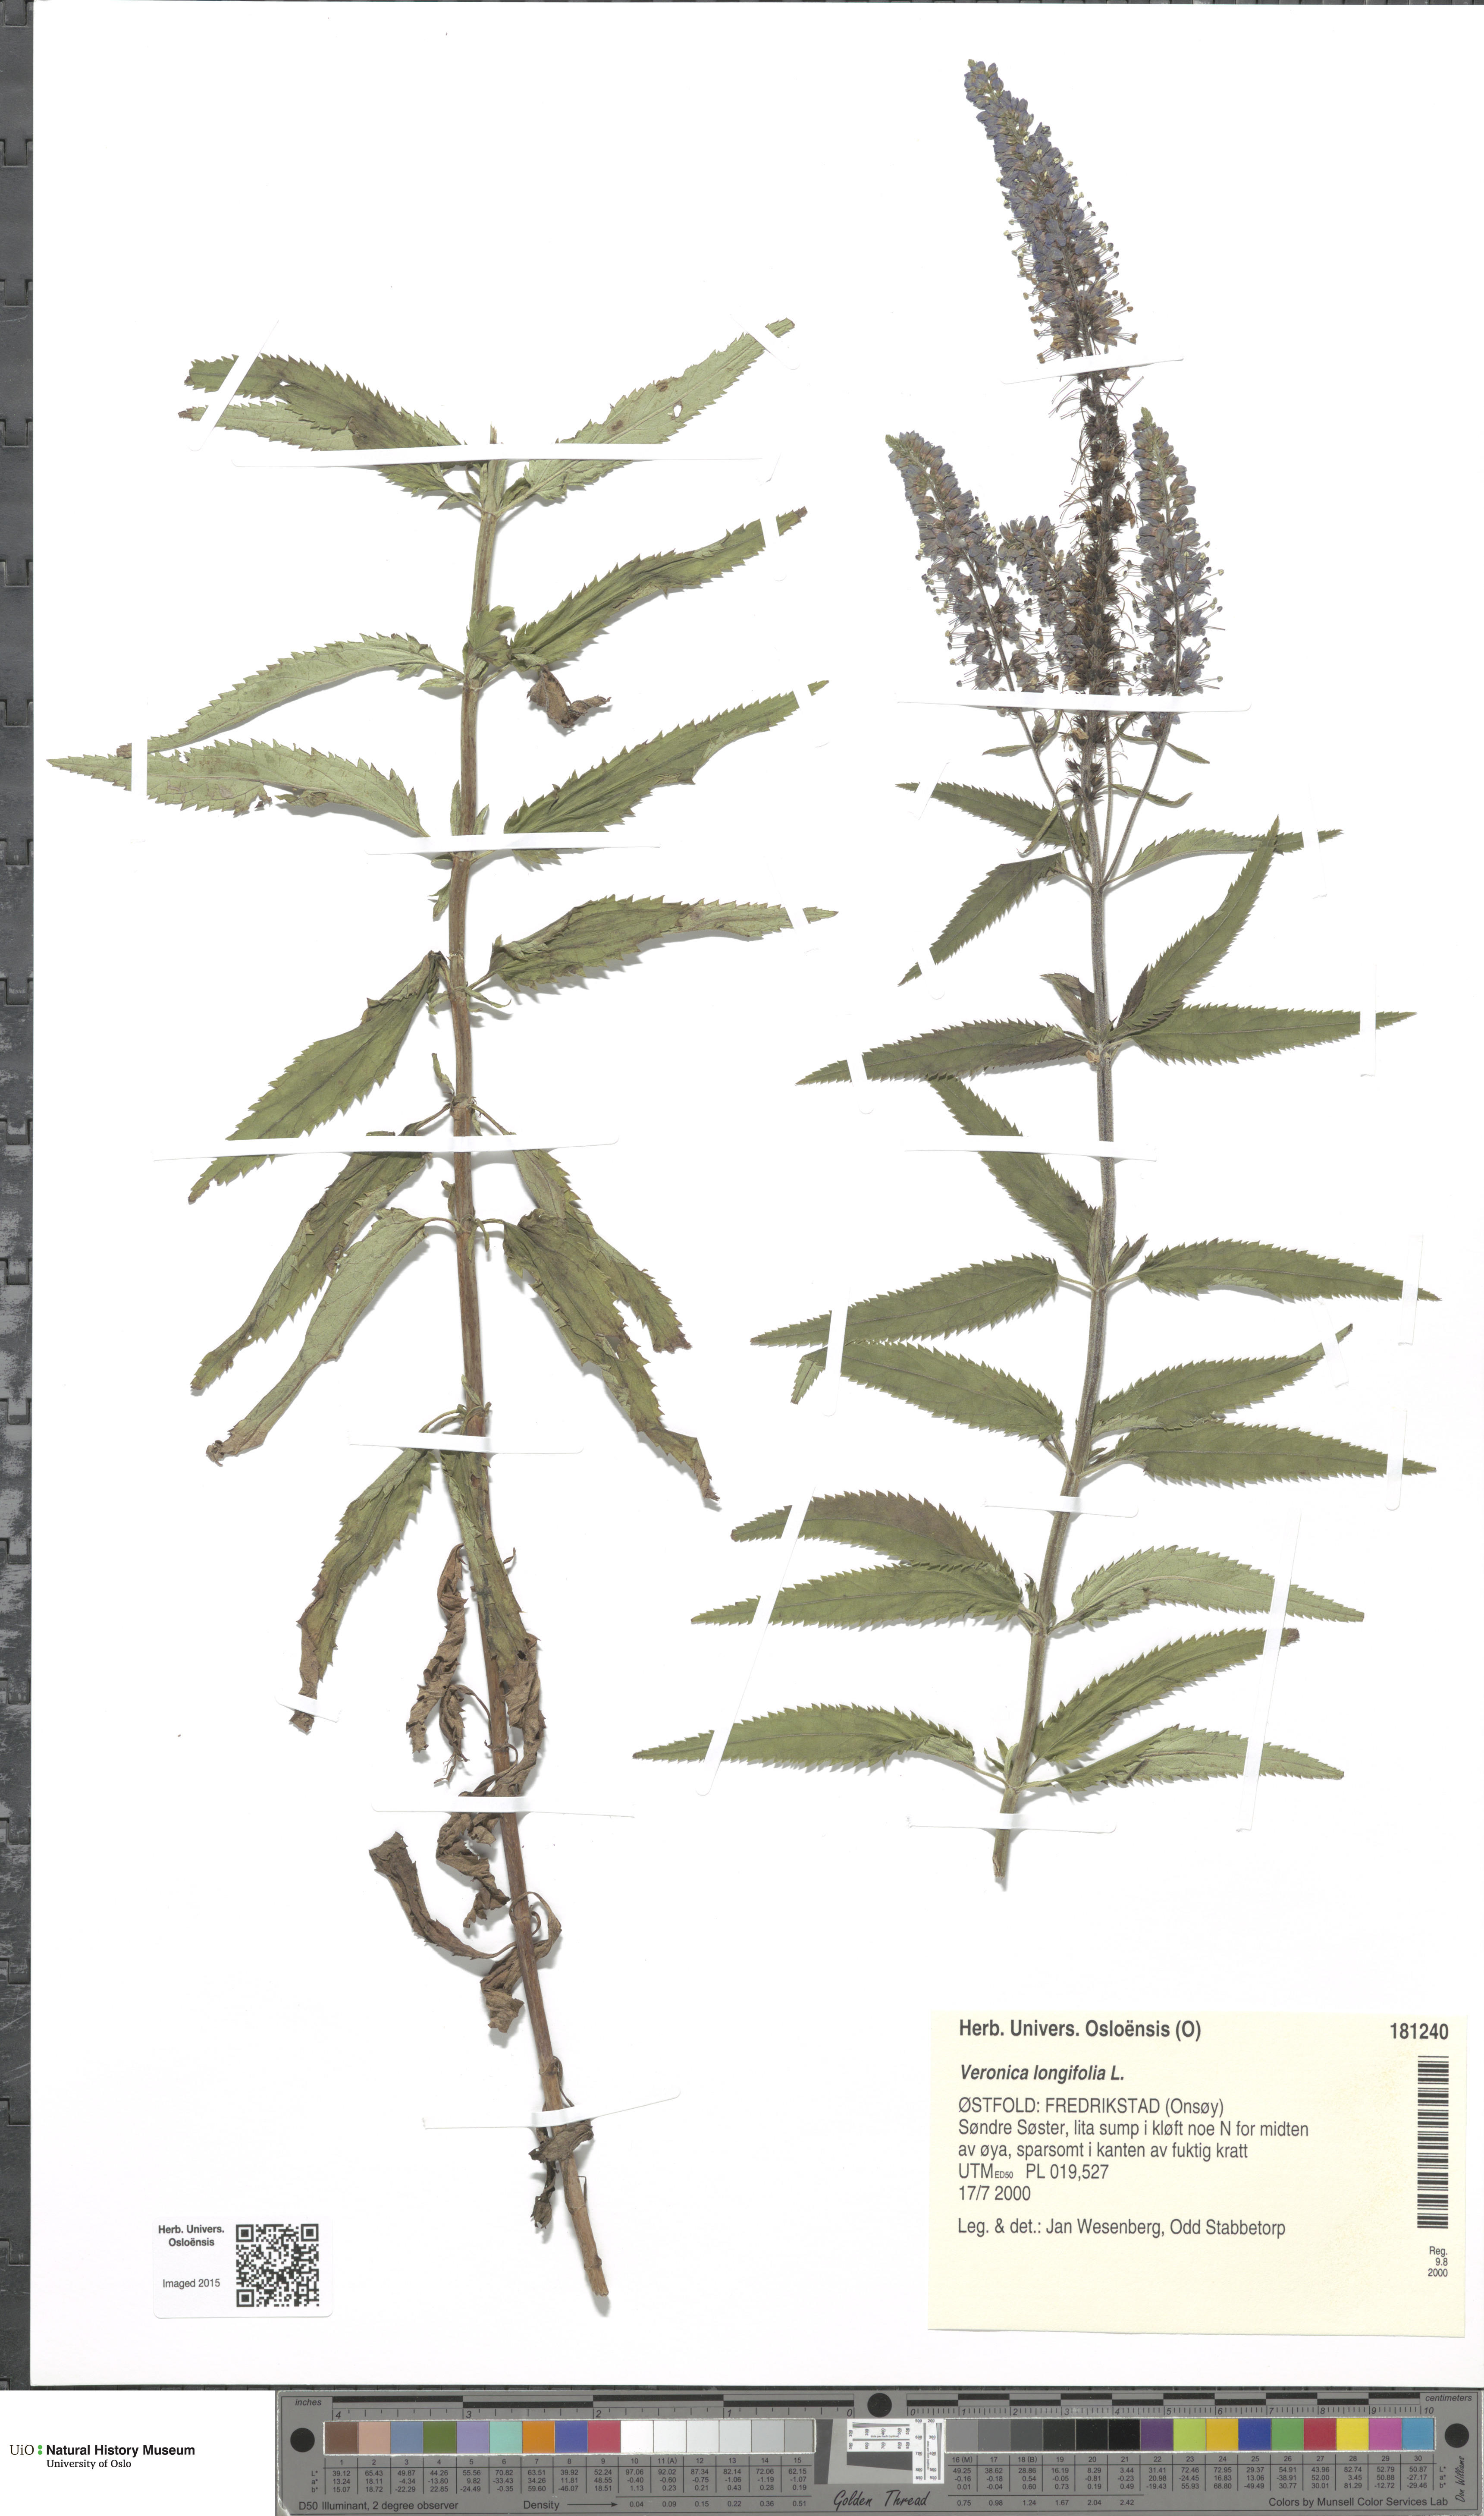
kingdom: Plantae
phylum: Tracheophyta
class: Magnoliopsida
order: Lamiales
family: Plantaginaceae
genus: Veronica
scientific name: Veronica longifolia
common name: Garden speedwell
